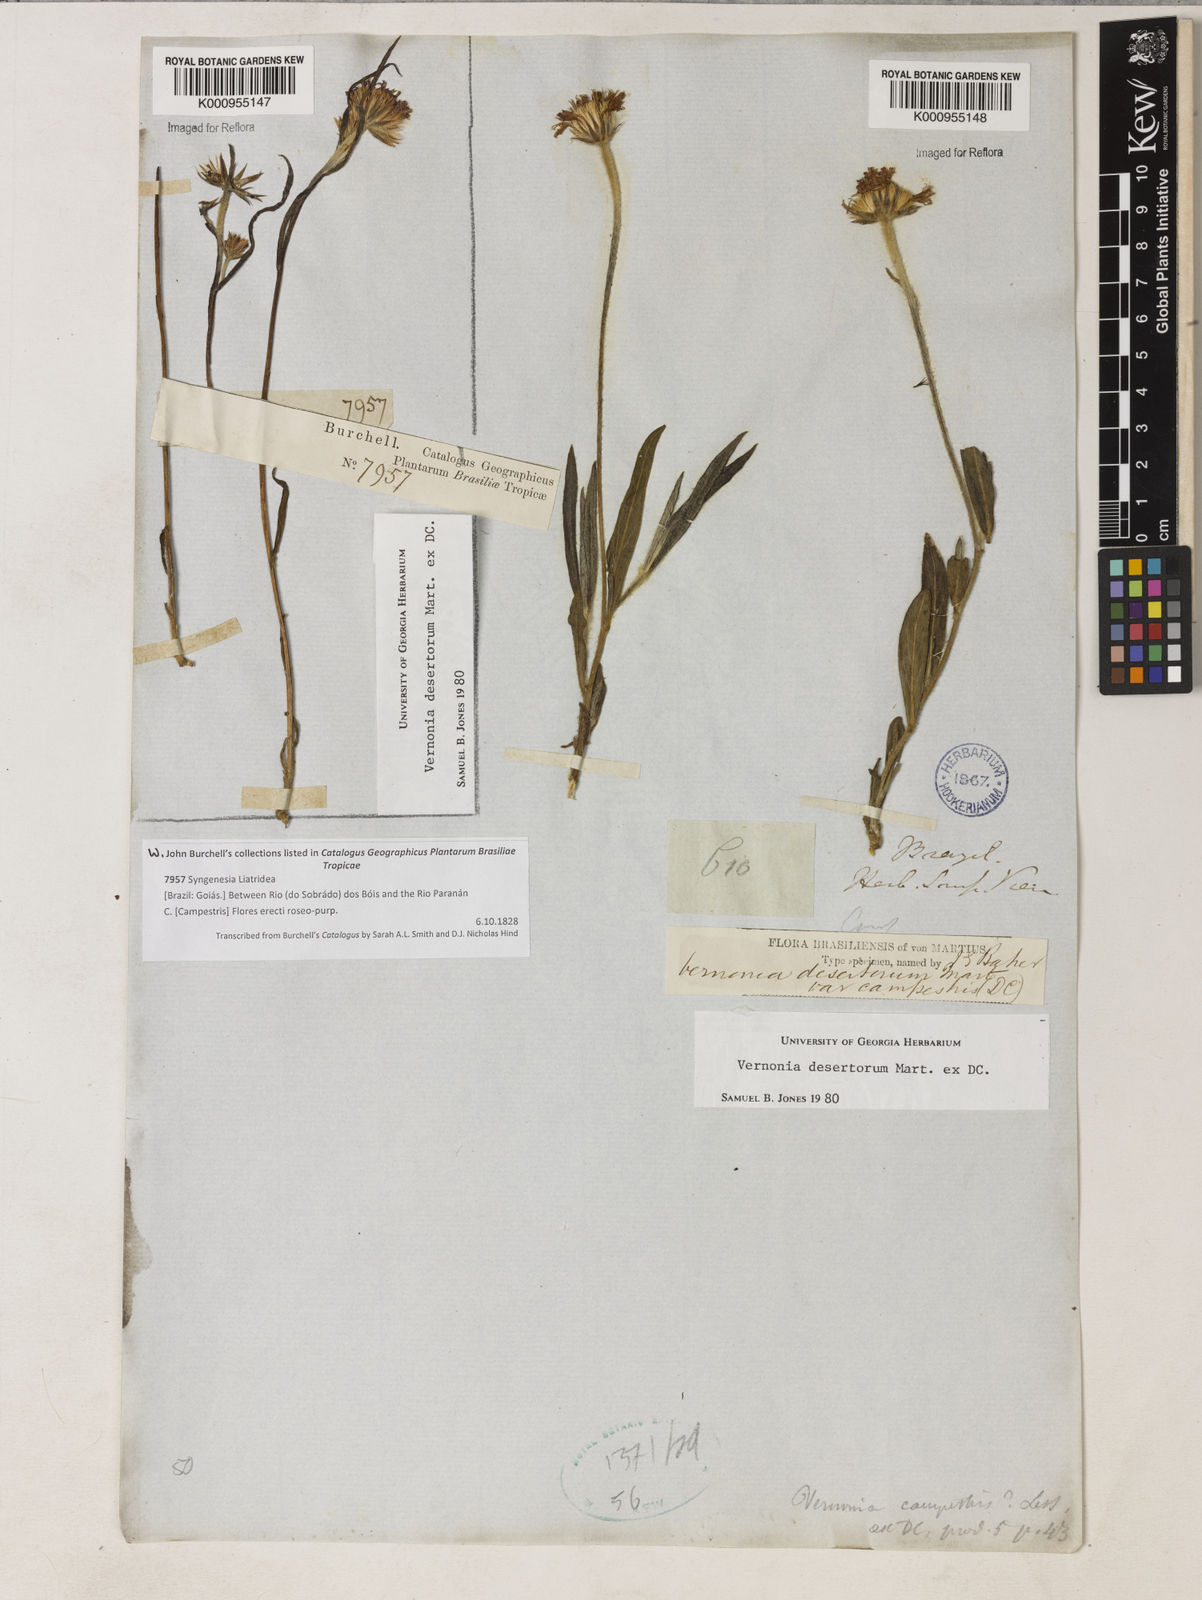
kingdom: Plantae
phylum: Tracheophyta
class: Magnoliopsida
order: Asterales
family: Asteraceae
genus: Chrysolaena
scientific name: Chrysolaena desertorum
